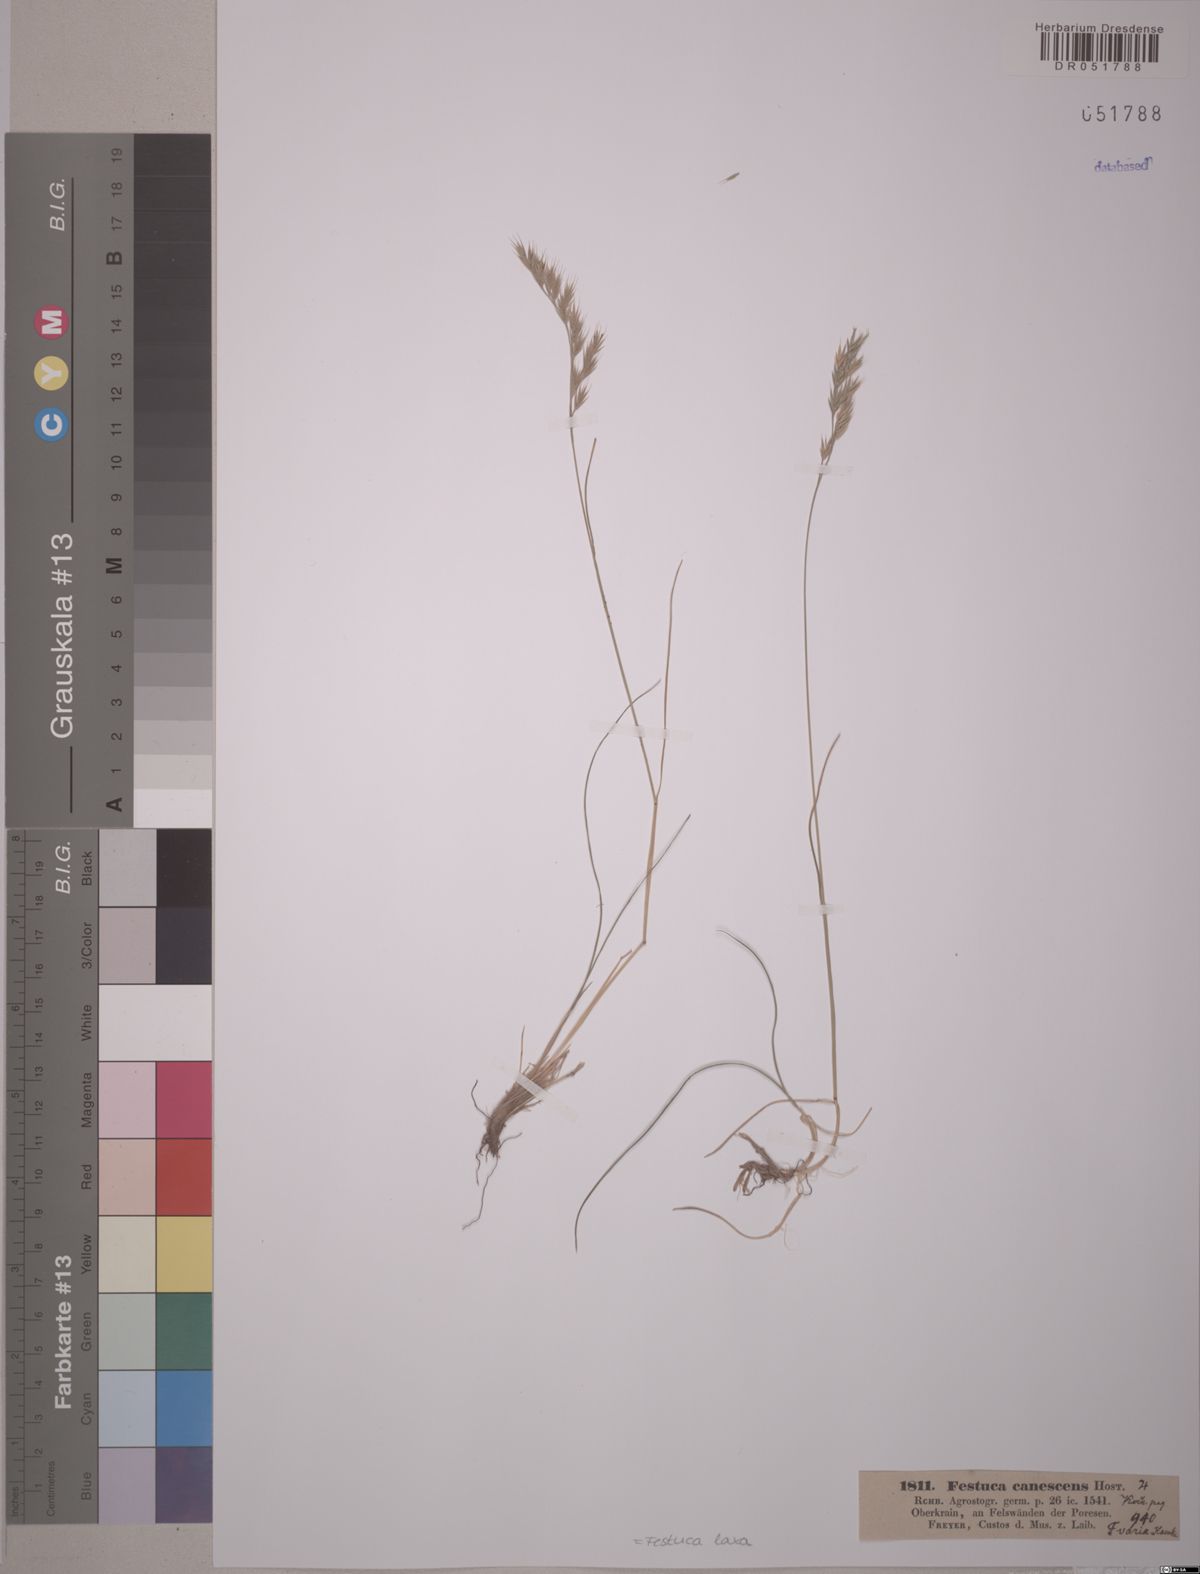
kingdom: Plantae
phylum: Tracheophyta
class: Liliopsida
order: Poales
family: Poaceae
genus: Festuca
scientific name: Festuca laxa
